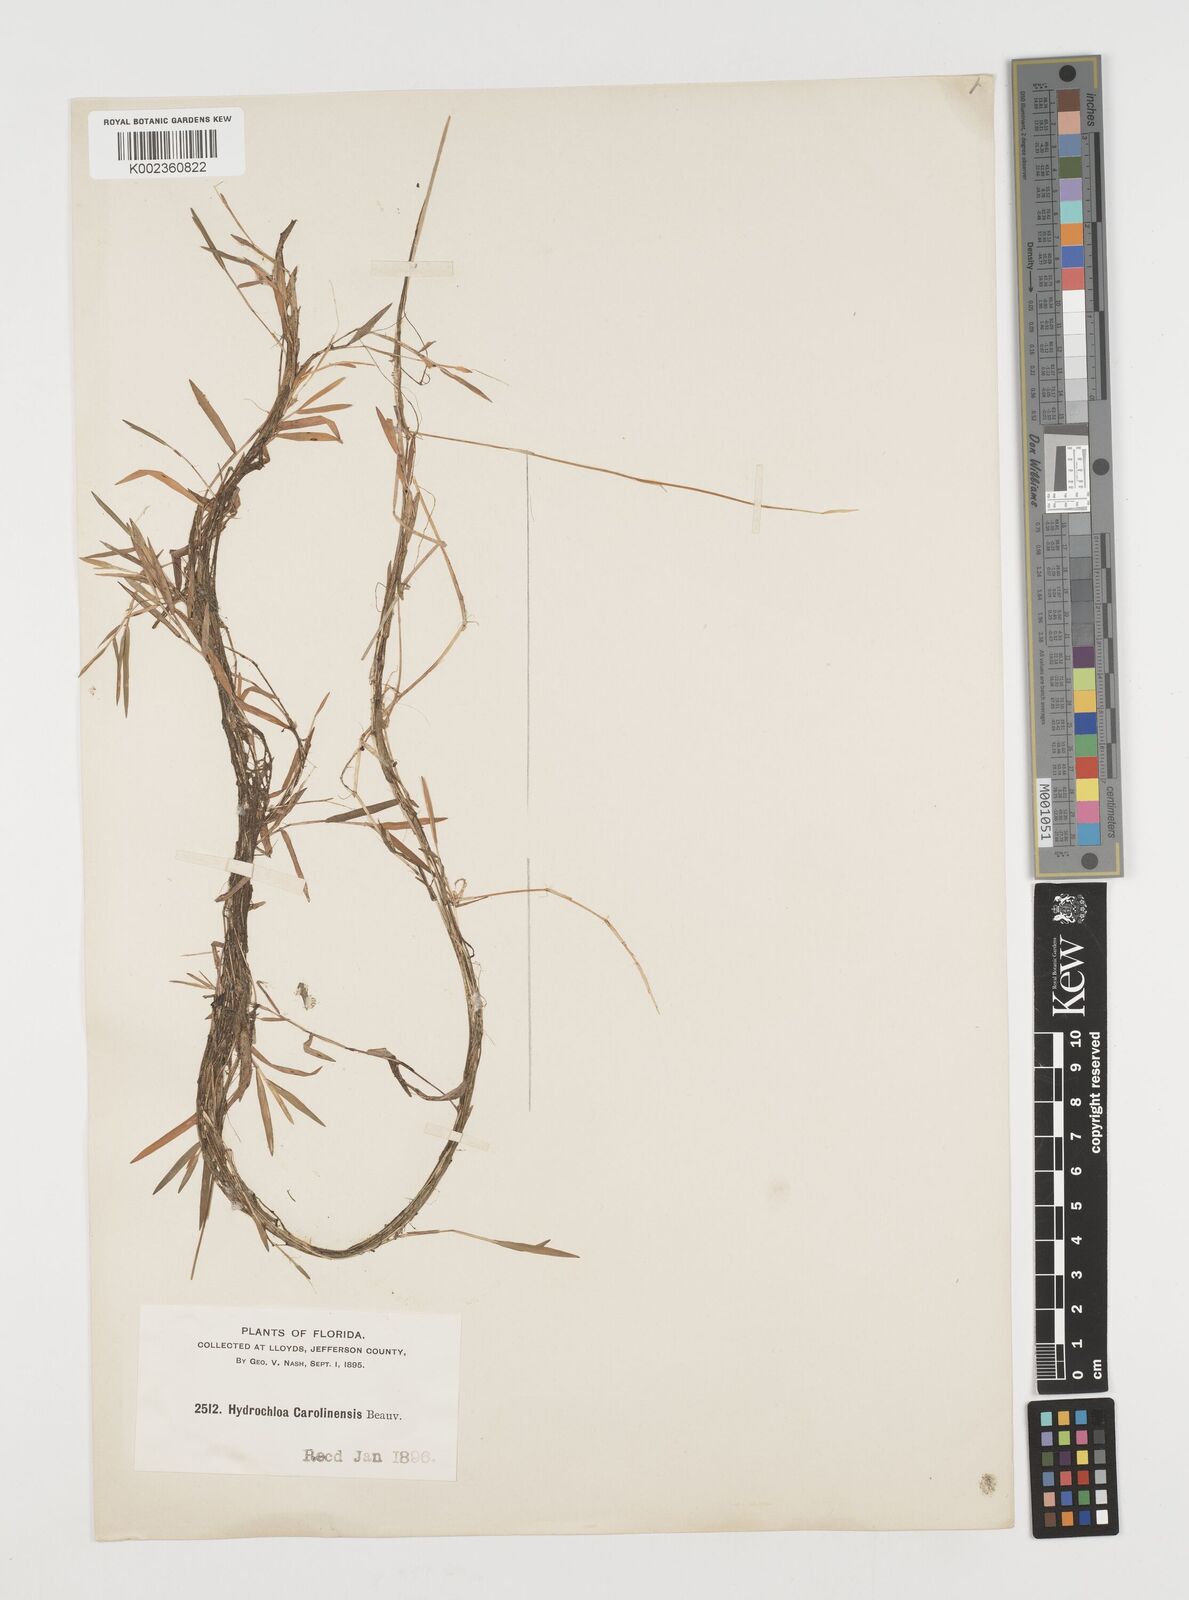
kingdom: Plantae
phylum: Tracheophyta
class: Liliopsida
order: Poales
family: Poaceae
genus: Luziola
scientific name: Luziola fluitans
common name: Silverleaf grass
